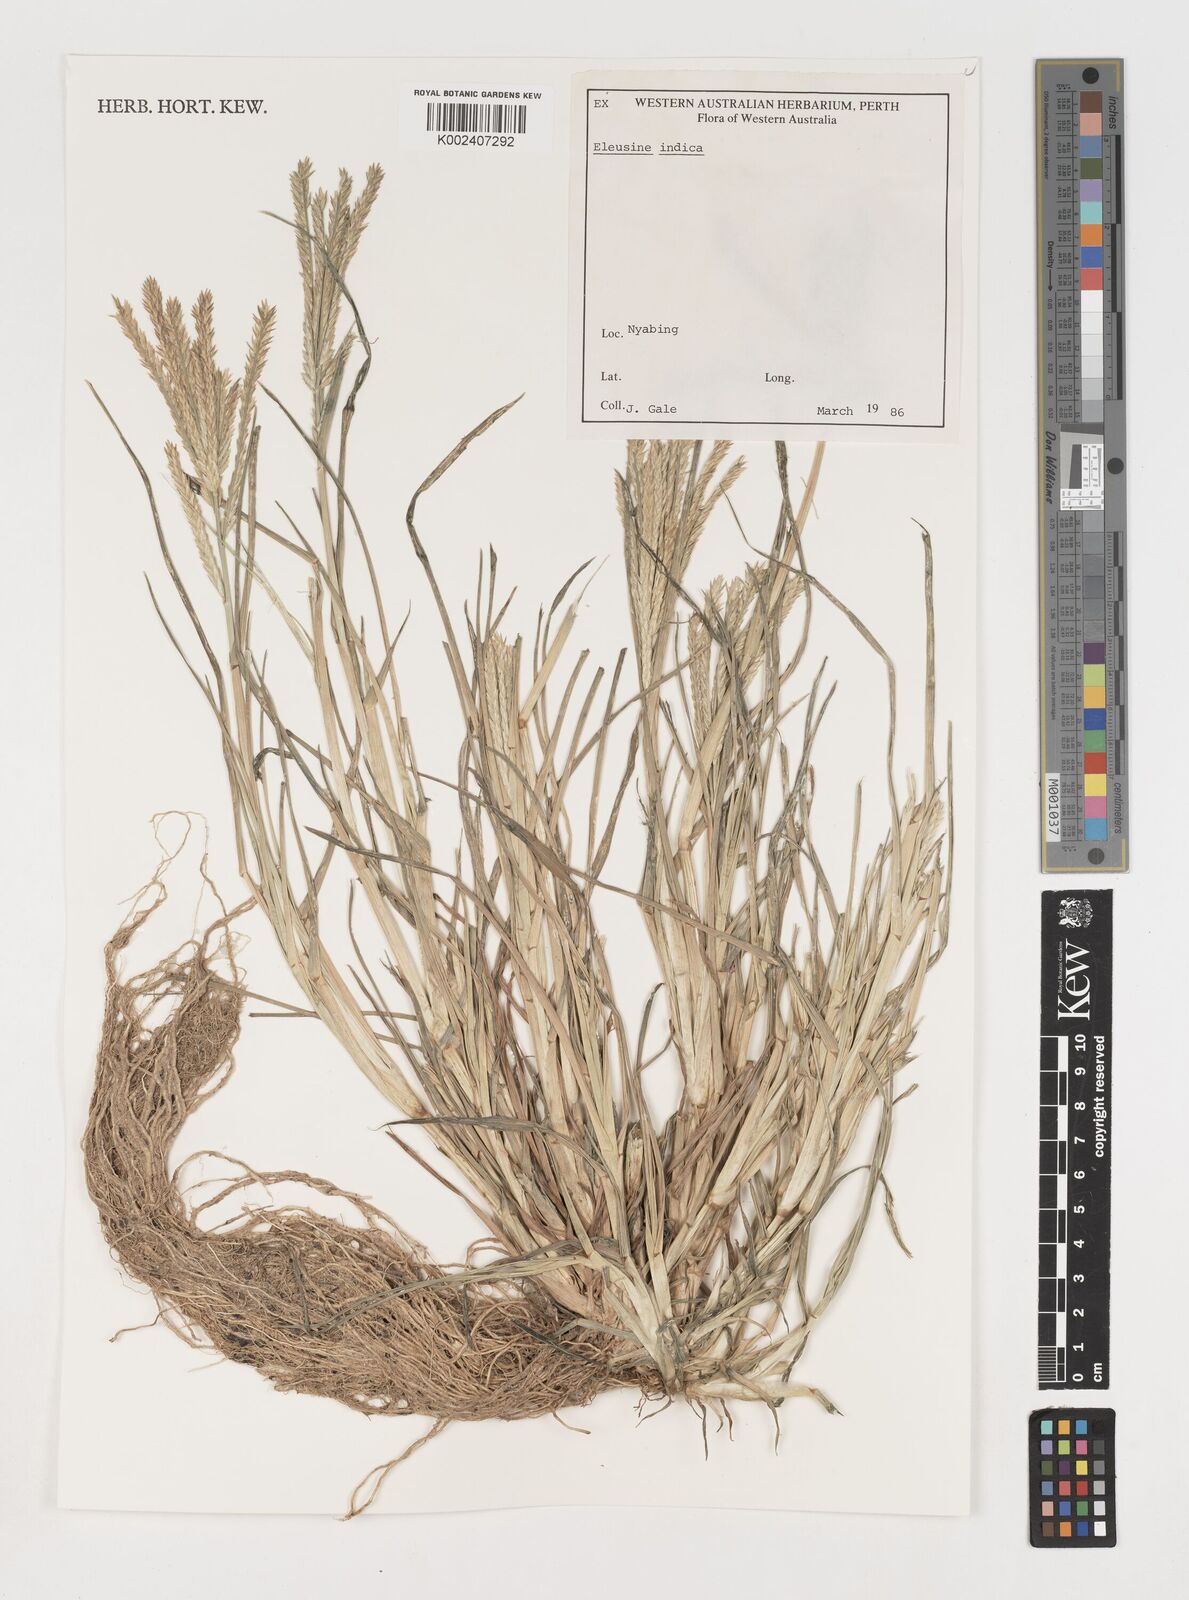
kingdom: Plantae
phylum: Tracheophyta
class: Liliopsida
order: Poales
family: Poaceae
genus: Eleusine
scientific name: Eleusine indica
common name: Yard-grass
